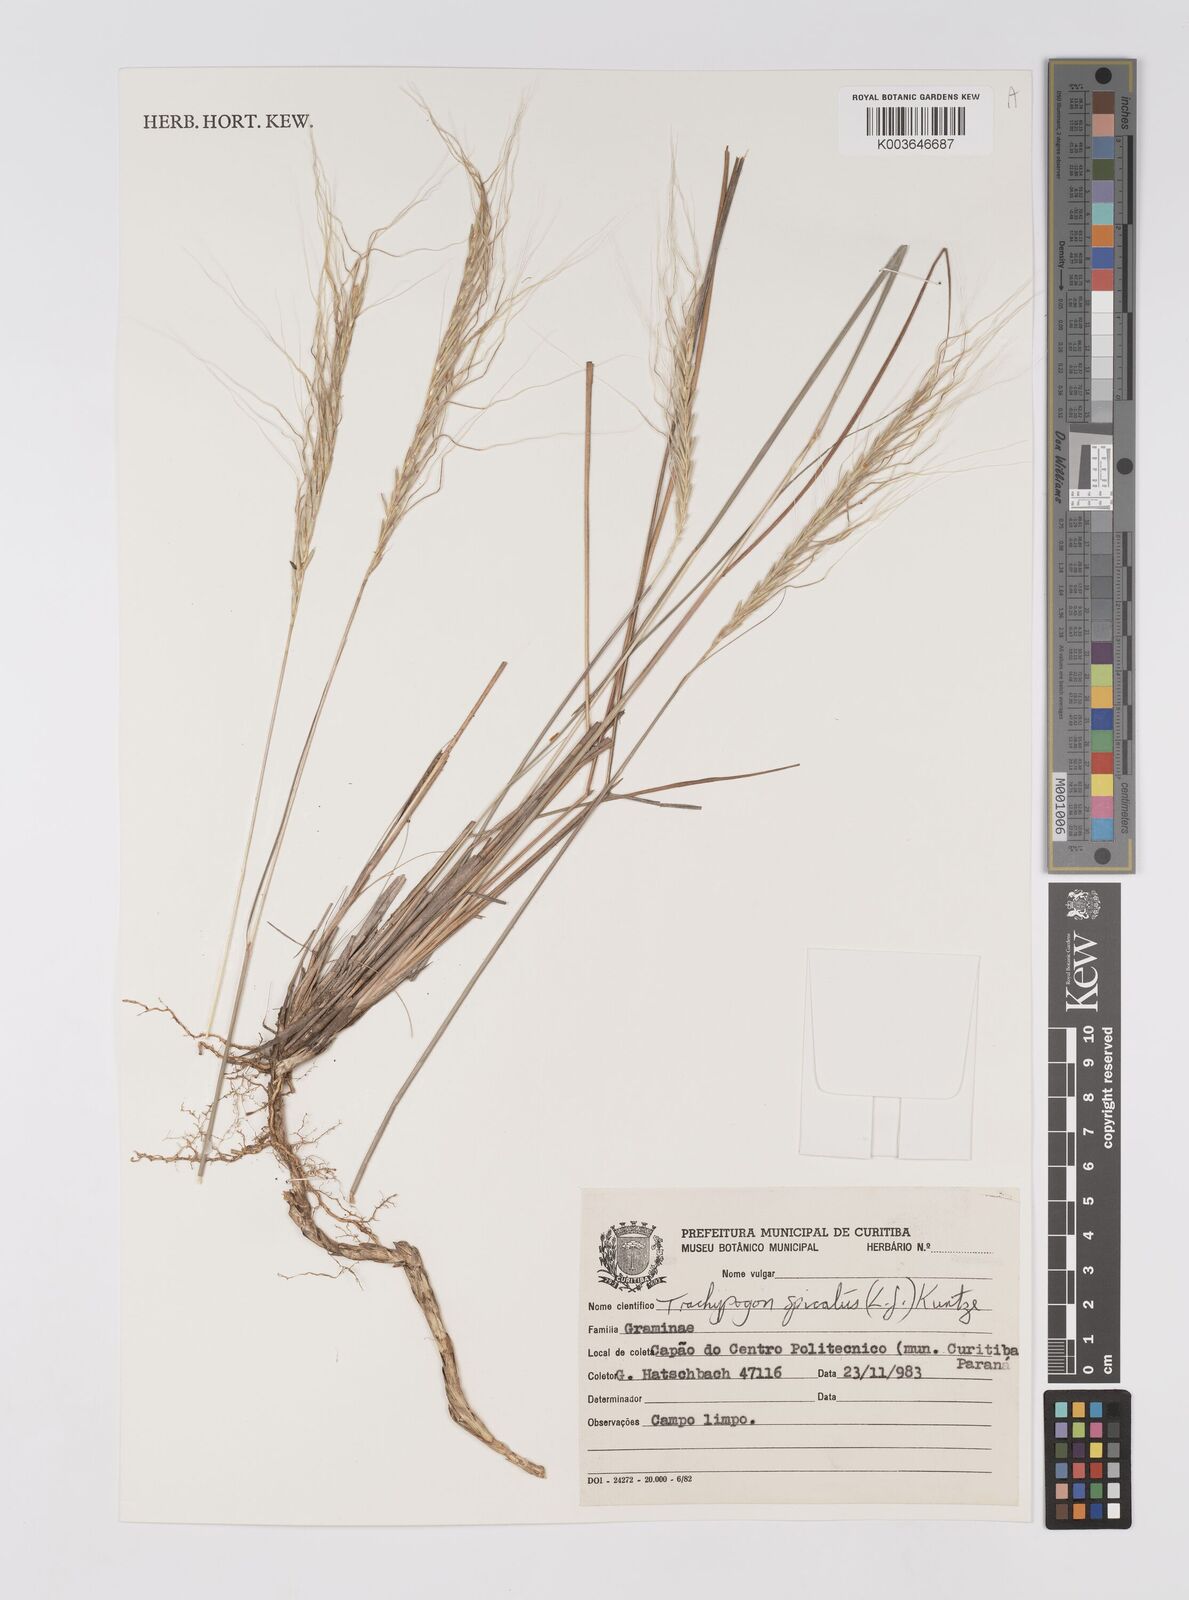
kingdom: Plantae
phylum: Tracheophyta
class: Liliopsida
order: Poales
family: Poaceae
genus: Trachypogon
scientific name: Trachypogon spicatus
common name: Crinkle-awn
